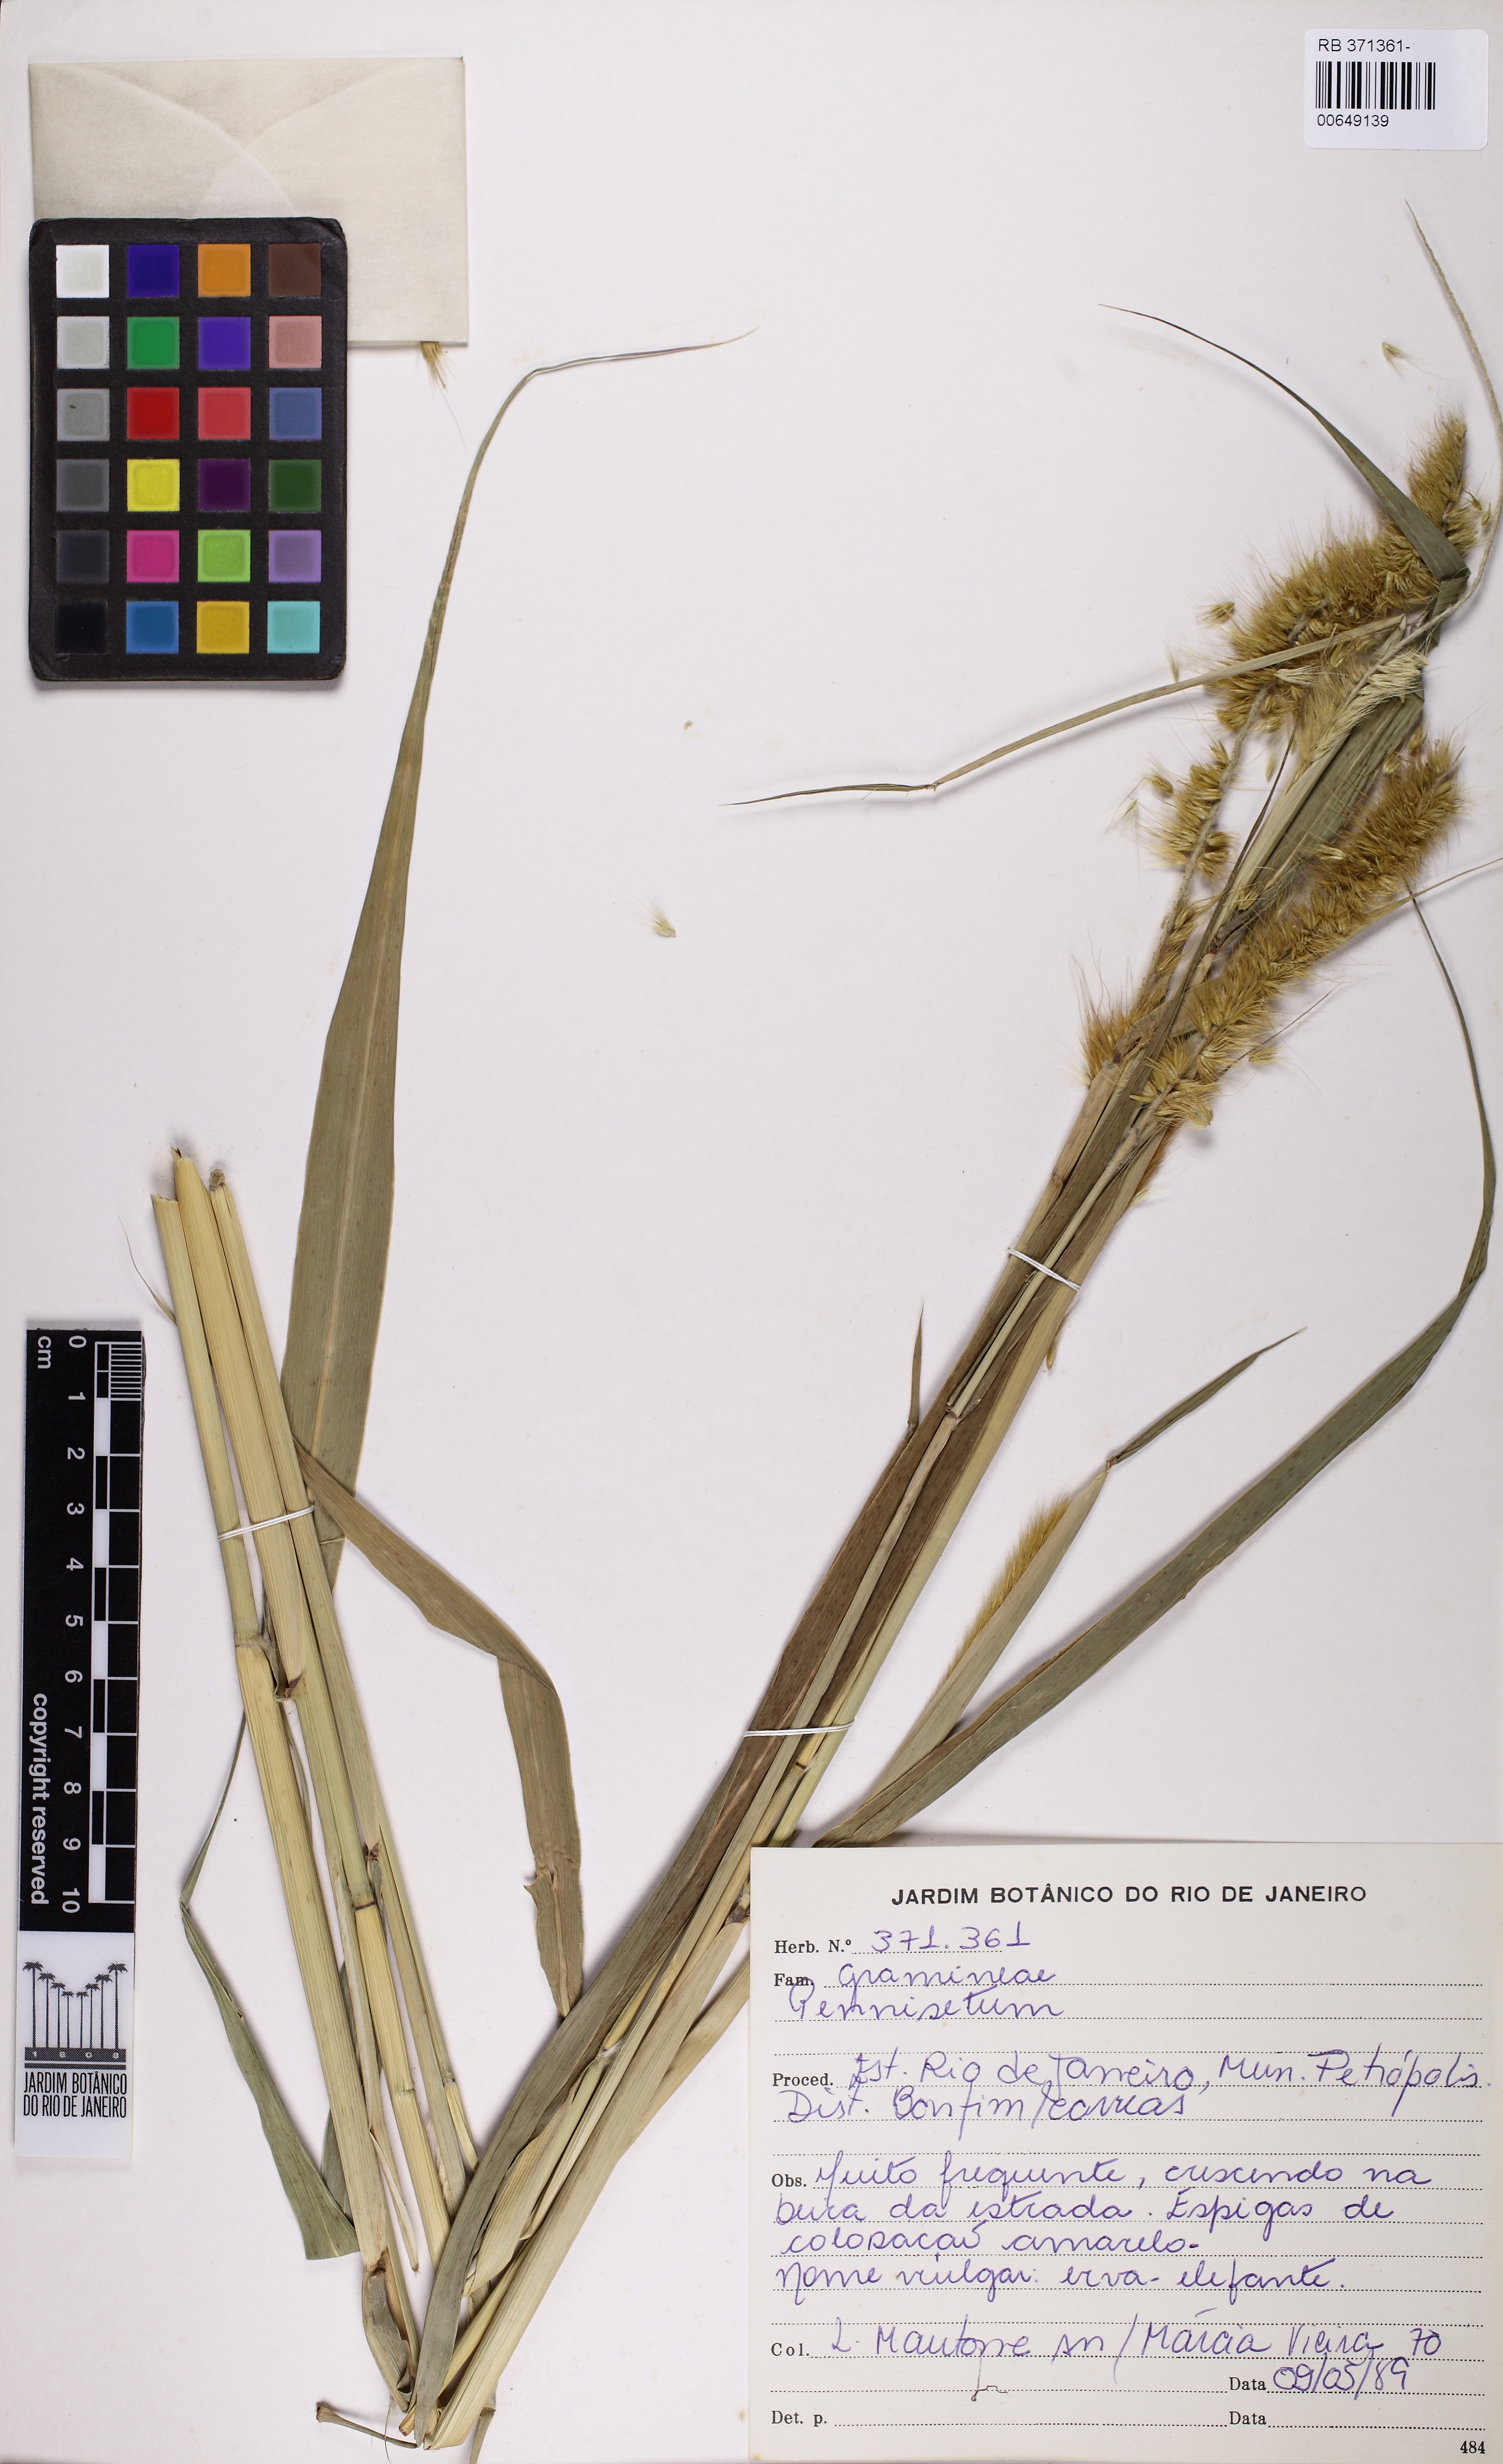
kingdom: Plantae
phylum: Tracheophyta
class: Liliopsida
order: Poales
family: Poaceae
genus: Cenchrus
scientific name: Cenchrus Pennisetum spec
